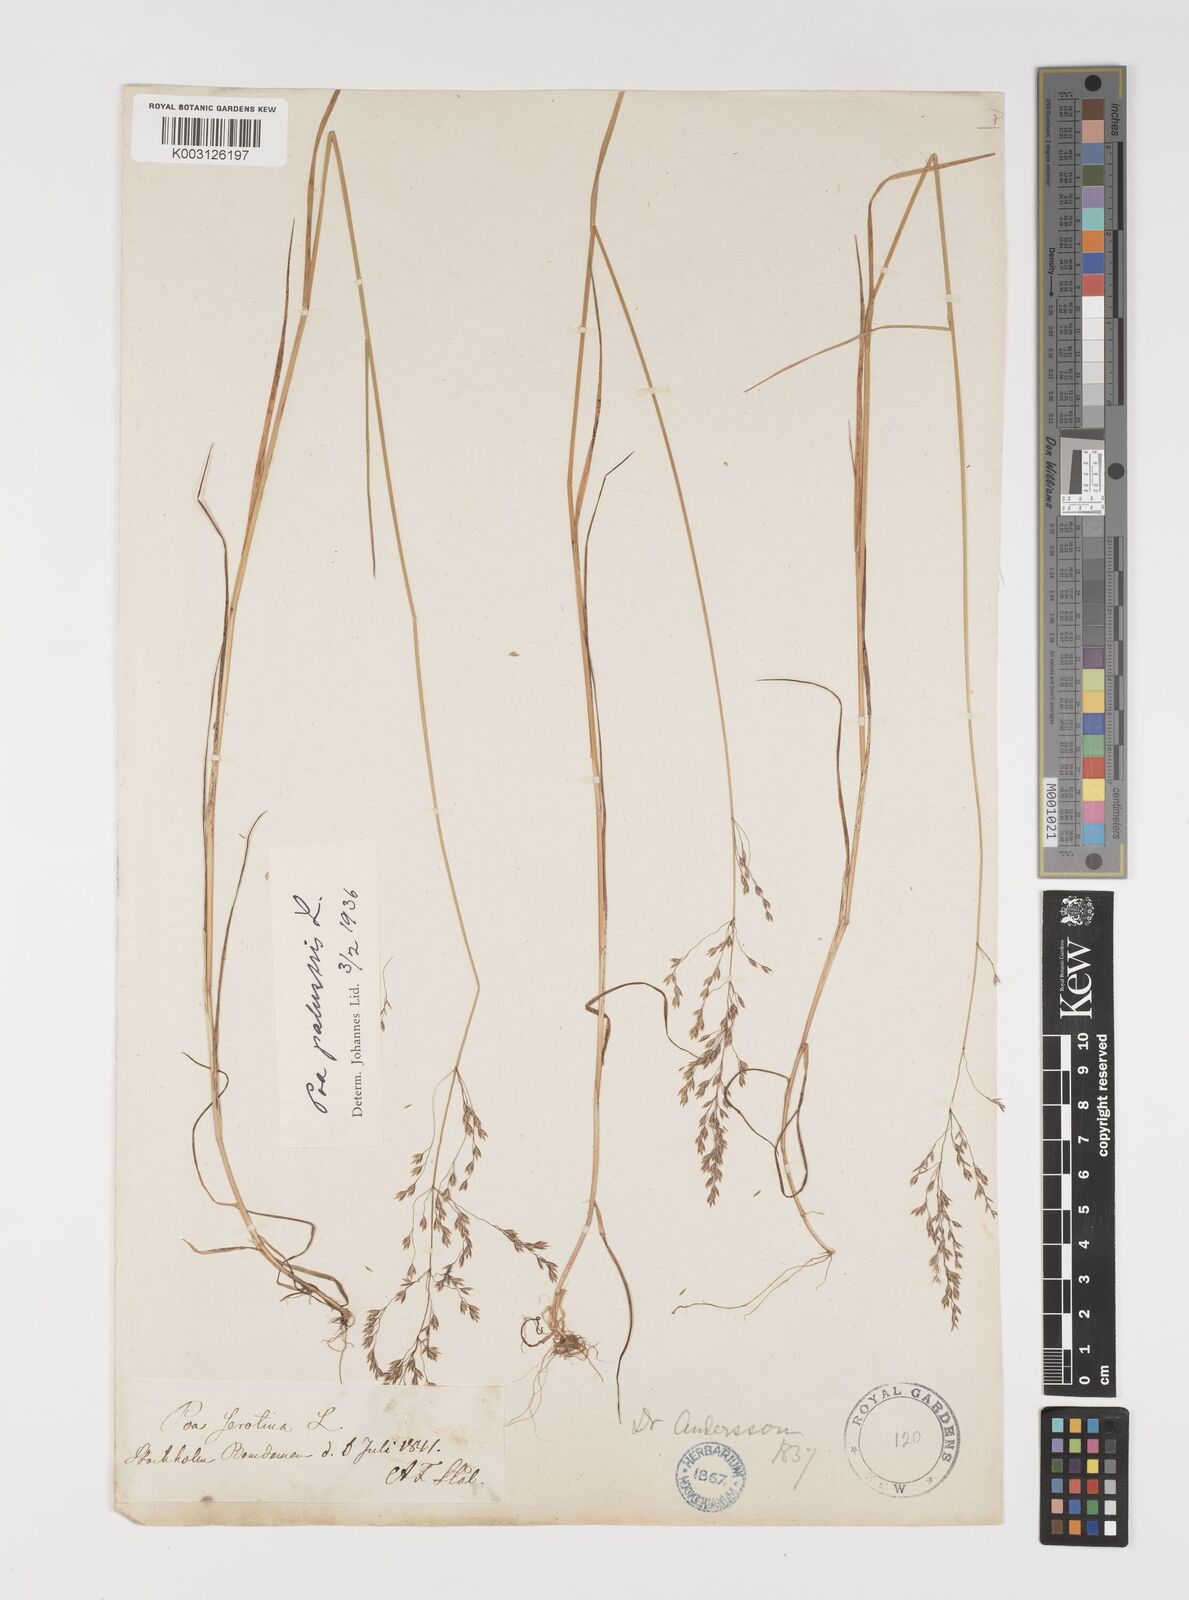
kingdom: Plantae
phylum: Tracheophyta
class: Liliopsida
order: Poales
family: Poaceae
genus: Poa
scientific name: Poa palustris
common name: Swamp meadow-grass
